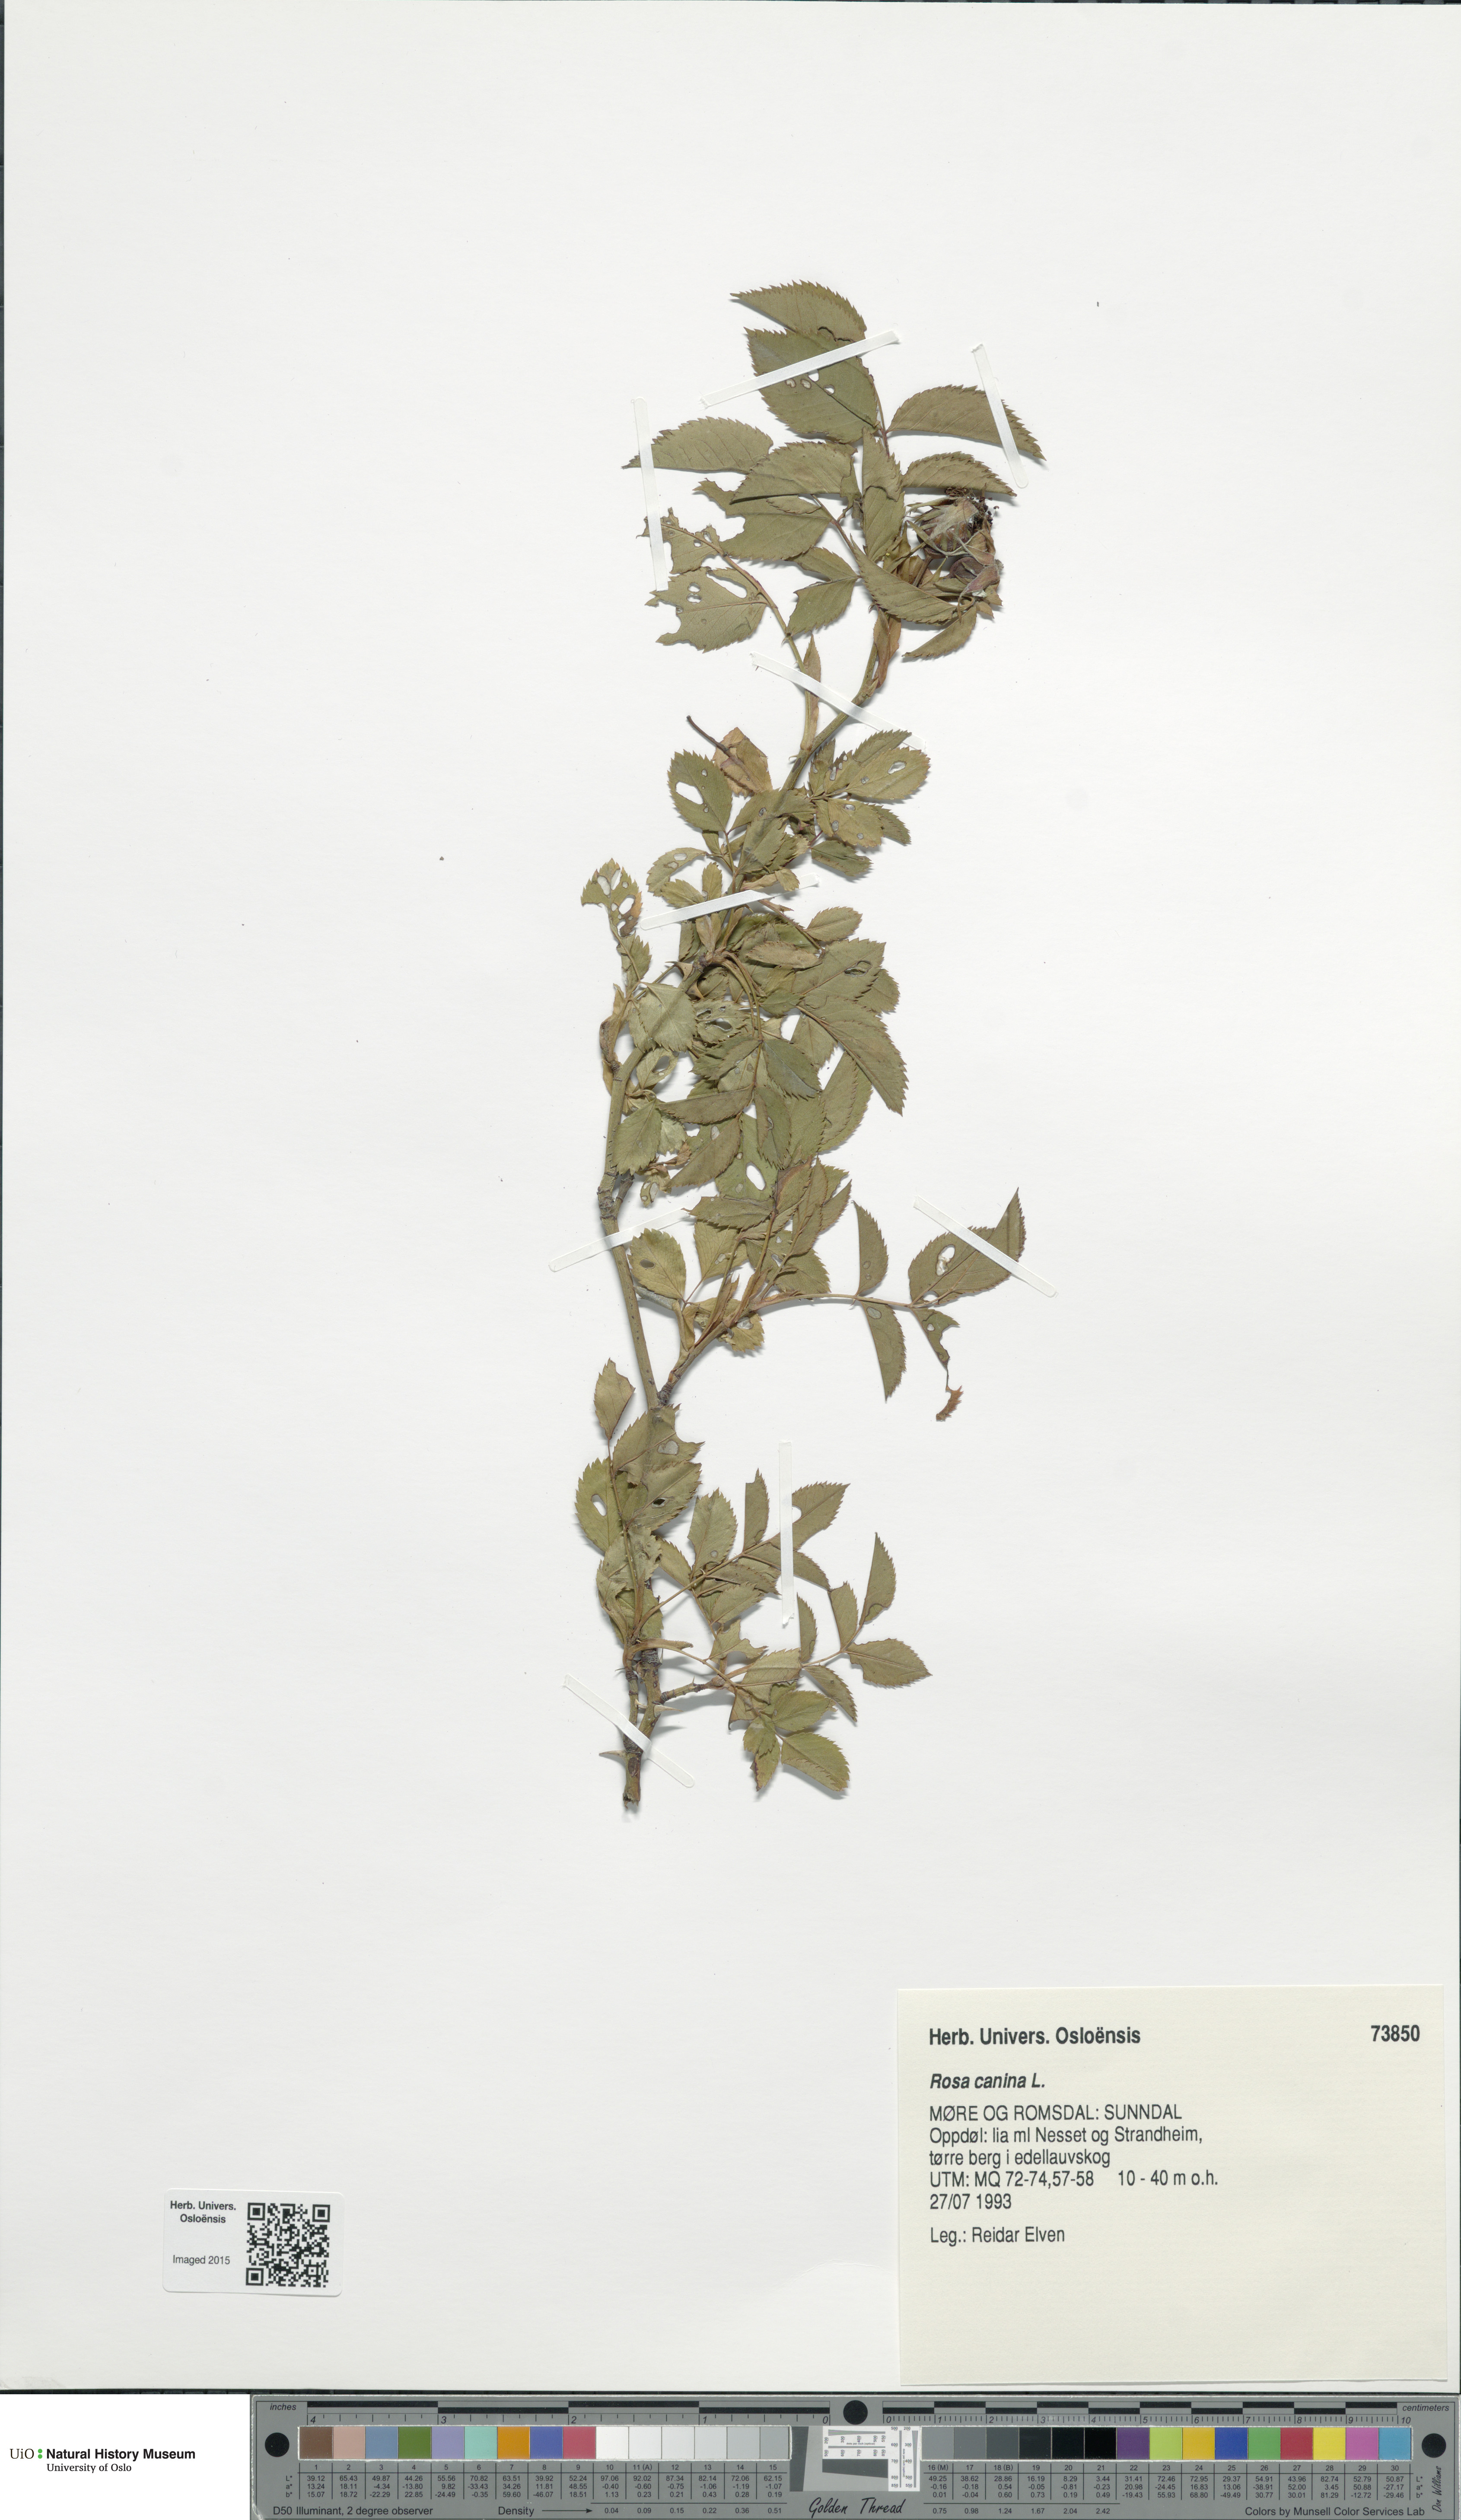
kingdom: Plantae
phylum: Tracheophyta
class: Magnoliopsida
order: Rosales
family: Rosaceae
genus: Rosa
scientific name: Rosa canina
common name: Dog rose
